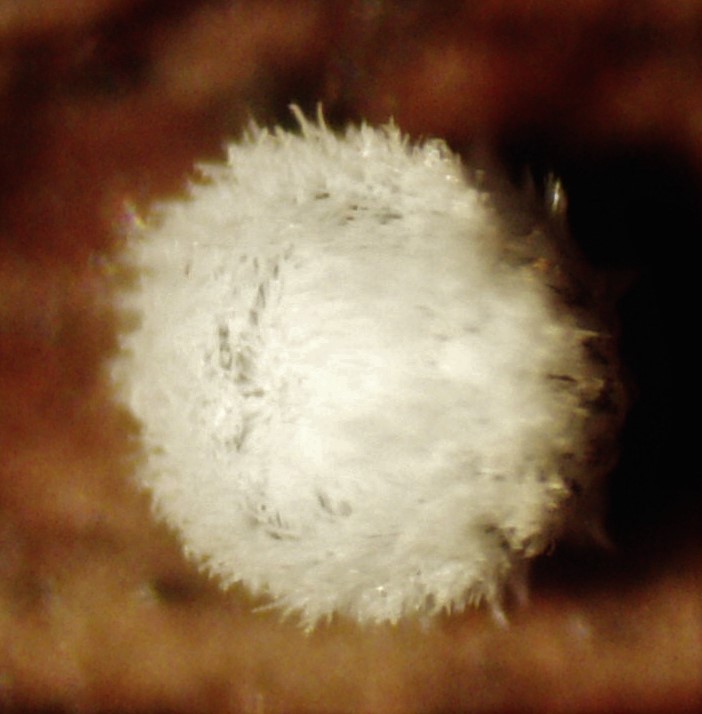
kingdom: Fungi
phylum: Basidiomycota
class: Agaricomycetes
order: Agaricales
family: Niaceae
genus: Lachnella
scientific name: Lachnella alboviolascens
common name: grå frynserede
